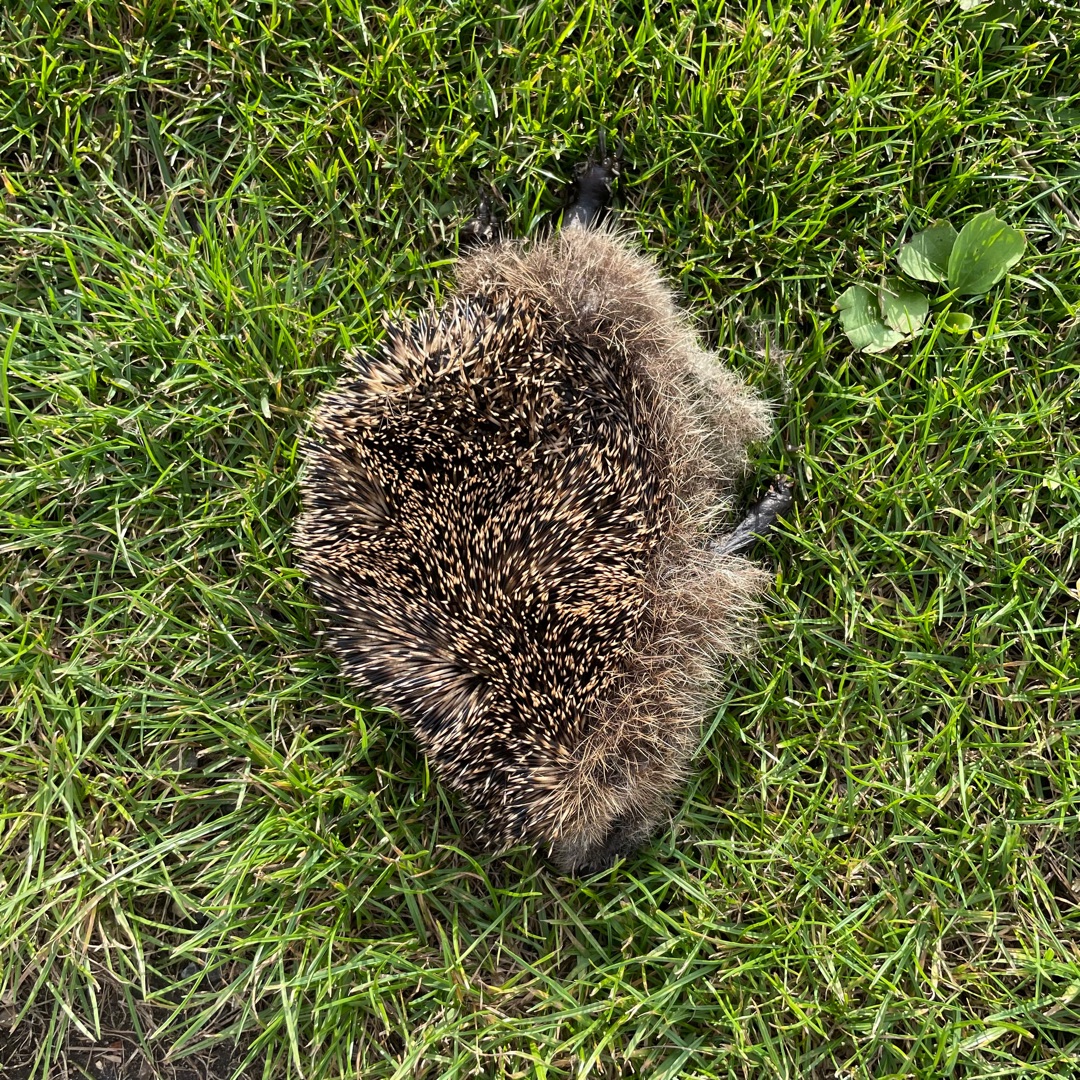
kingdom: Animalia
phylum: Chordata
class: Mammalia
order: Erinaceomorpha
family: Erinaceidae
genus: Erinaceus
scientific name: Erinaceus europaeus
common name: Pindsvin
